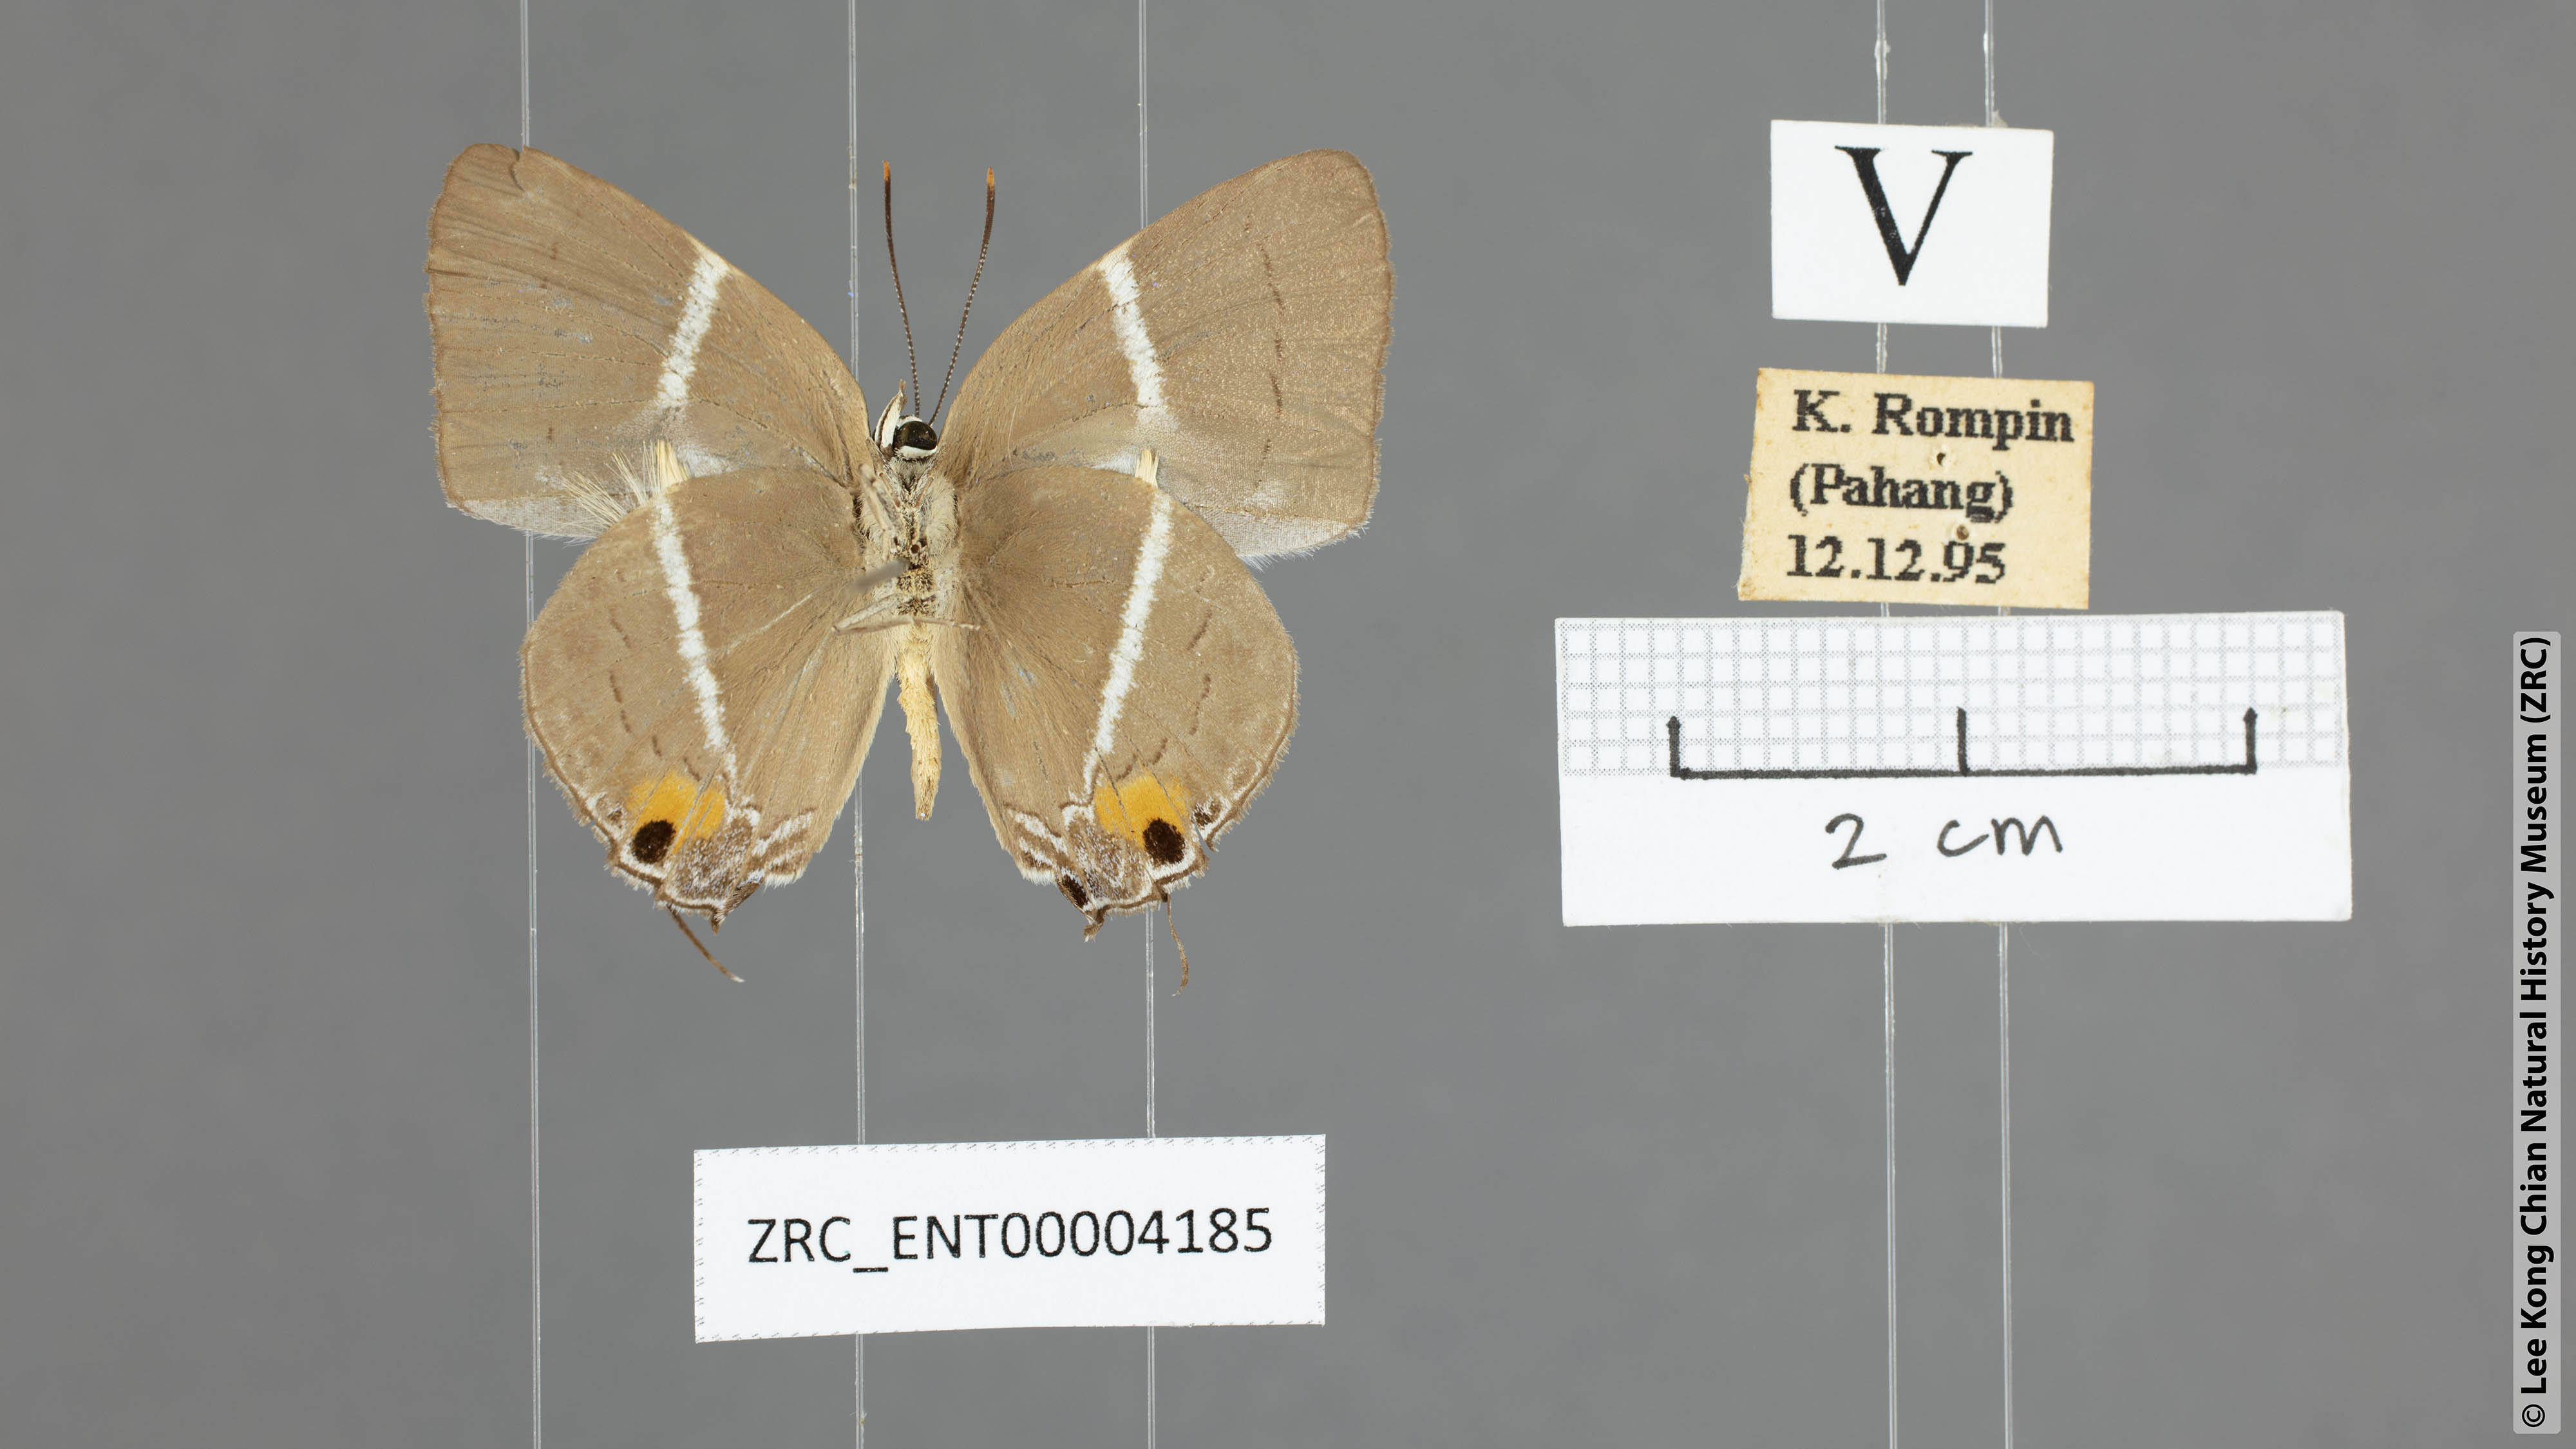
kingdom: Animalia
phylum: Arthropoda
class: Insecta
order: Lepidoptera
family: Lycaenidae
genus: Dacalana
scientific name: Dacalana vidura
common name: Medium-branded royal
